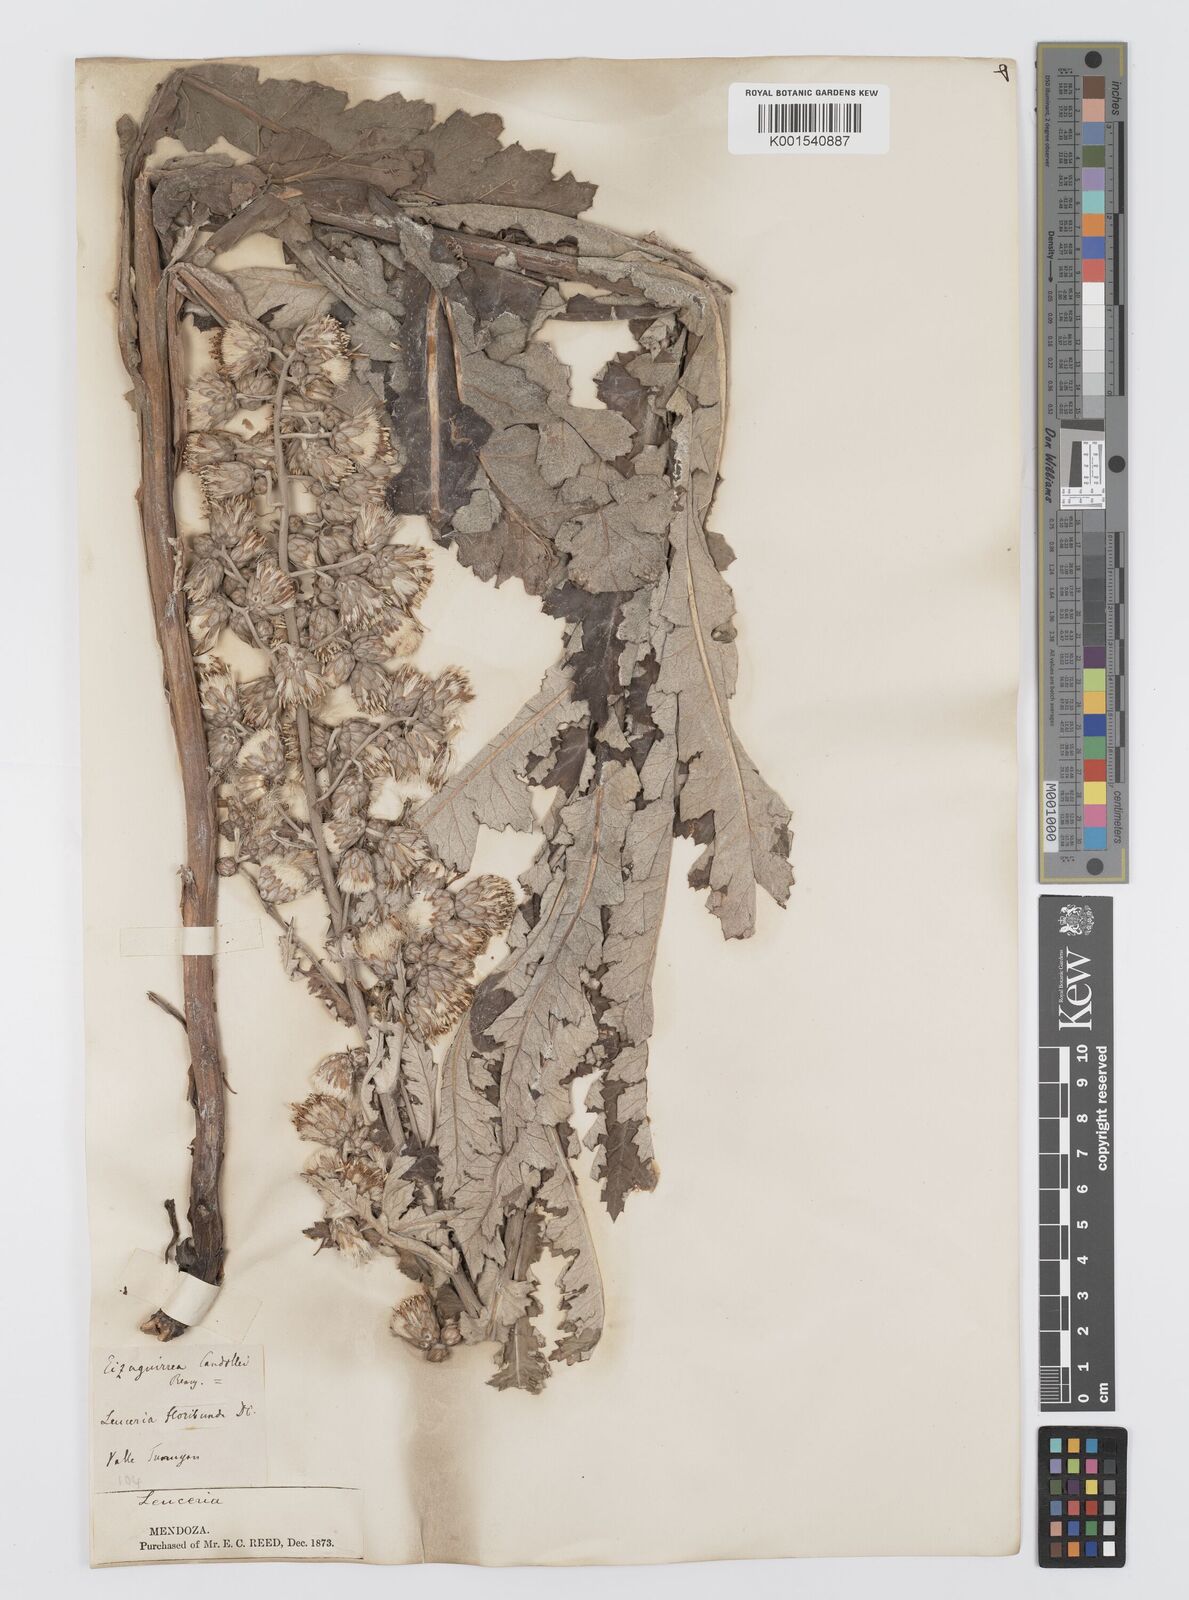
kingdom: Plantae
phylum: Tracheophyta
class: Magnoliopsida
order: Asterales
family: Asteraceae
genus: Leucheria
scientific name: Leucheria floribunda
